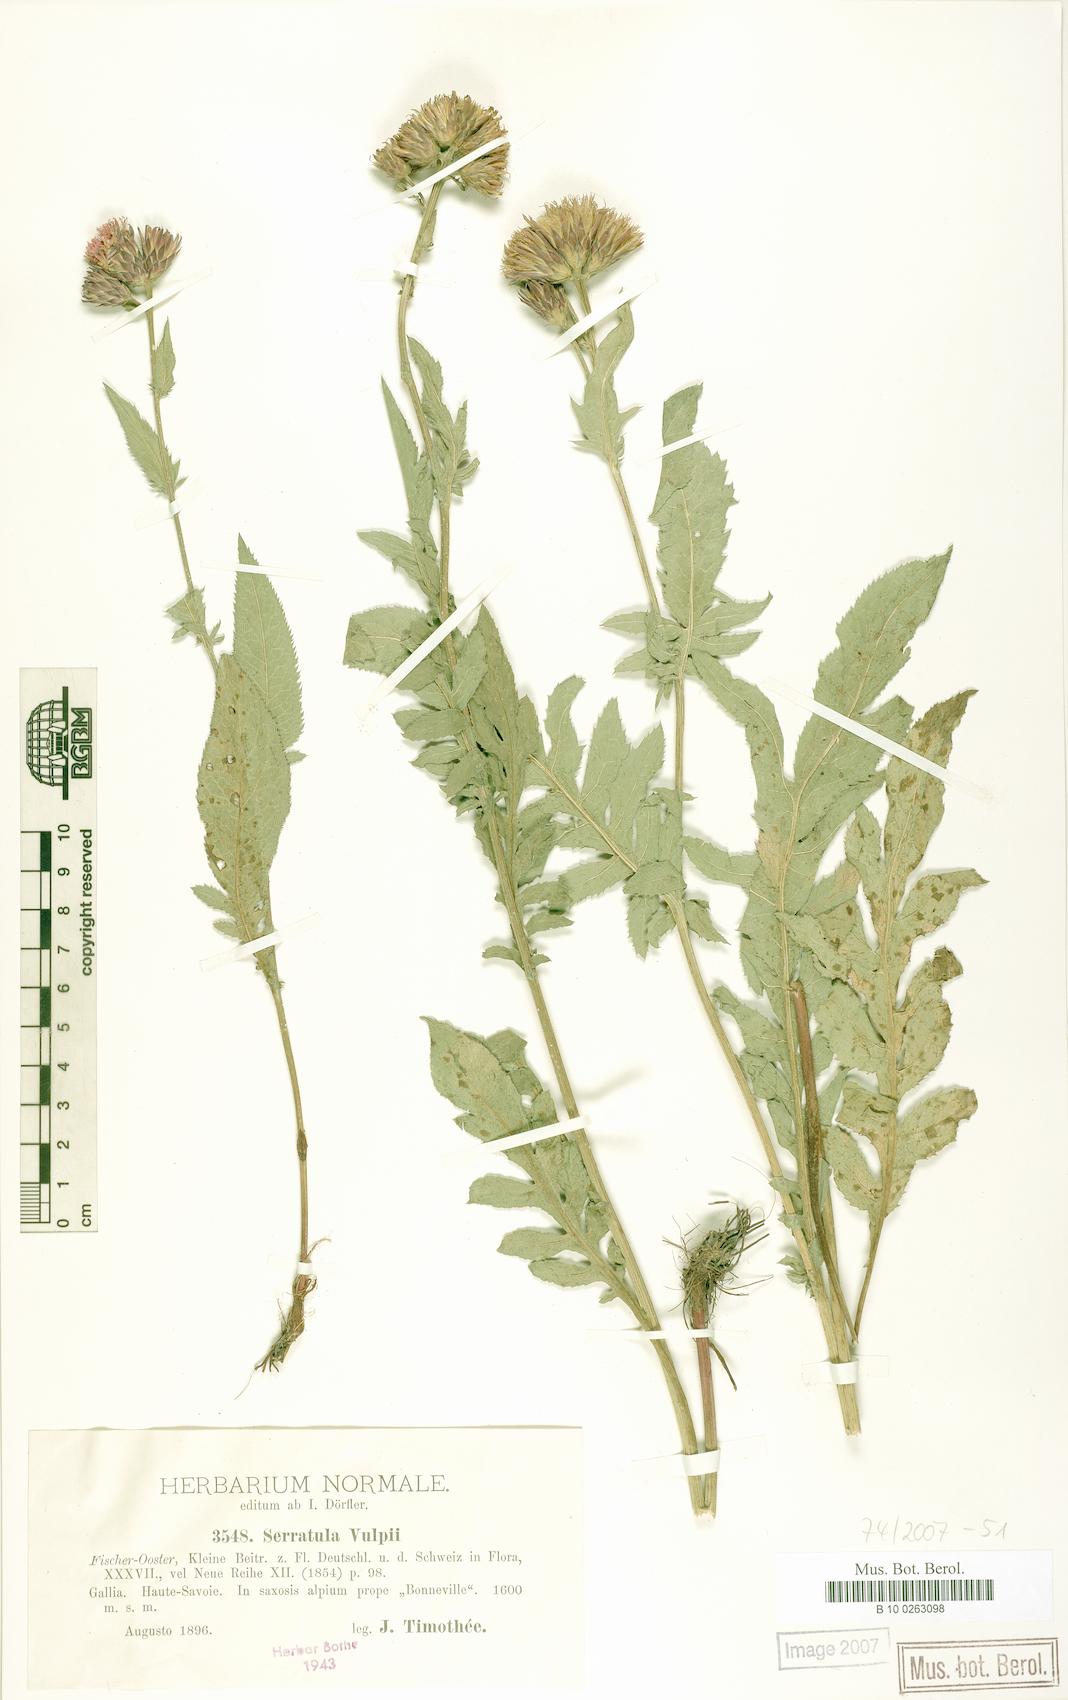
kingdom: Plantae
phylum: Tracheophyta
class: Magnoliopsida
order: Asterales
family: Asteraceae
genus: Serratula
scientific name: Serratula tinctoria
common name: Saw-wort
